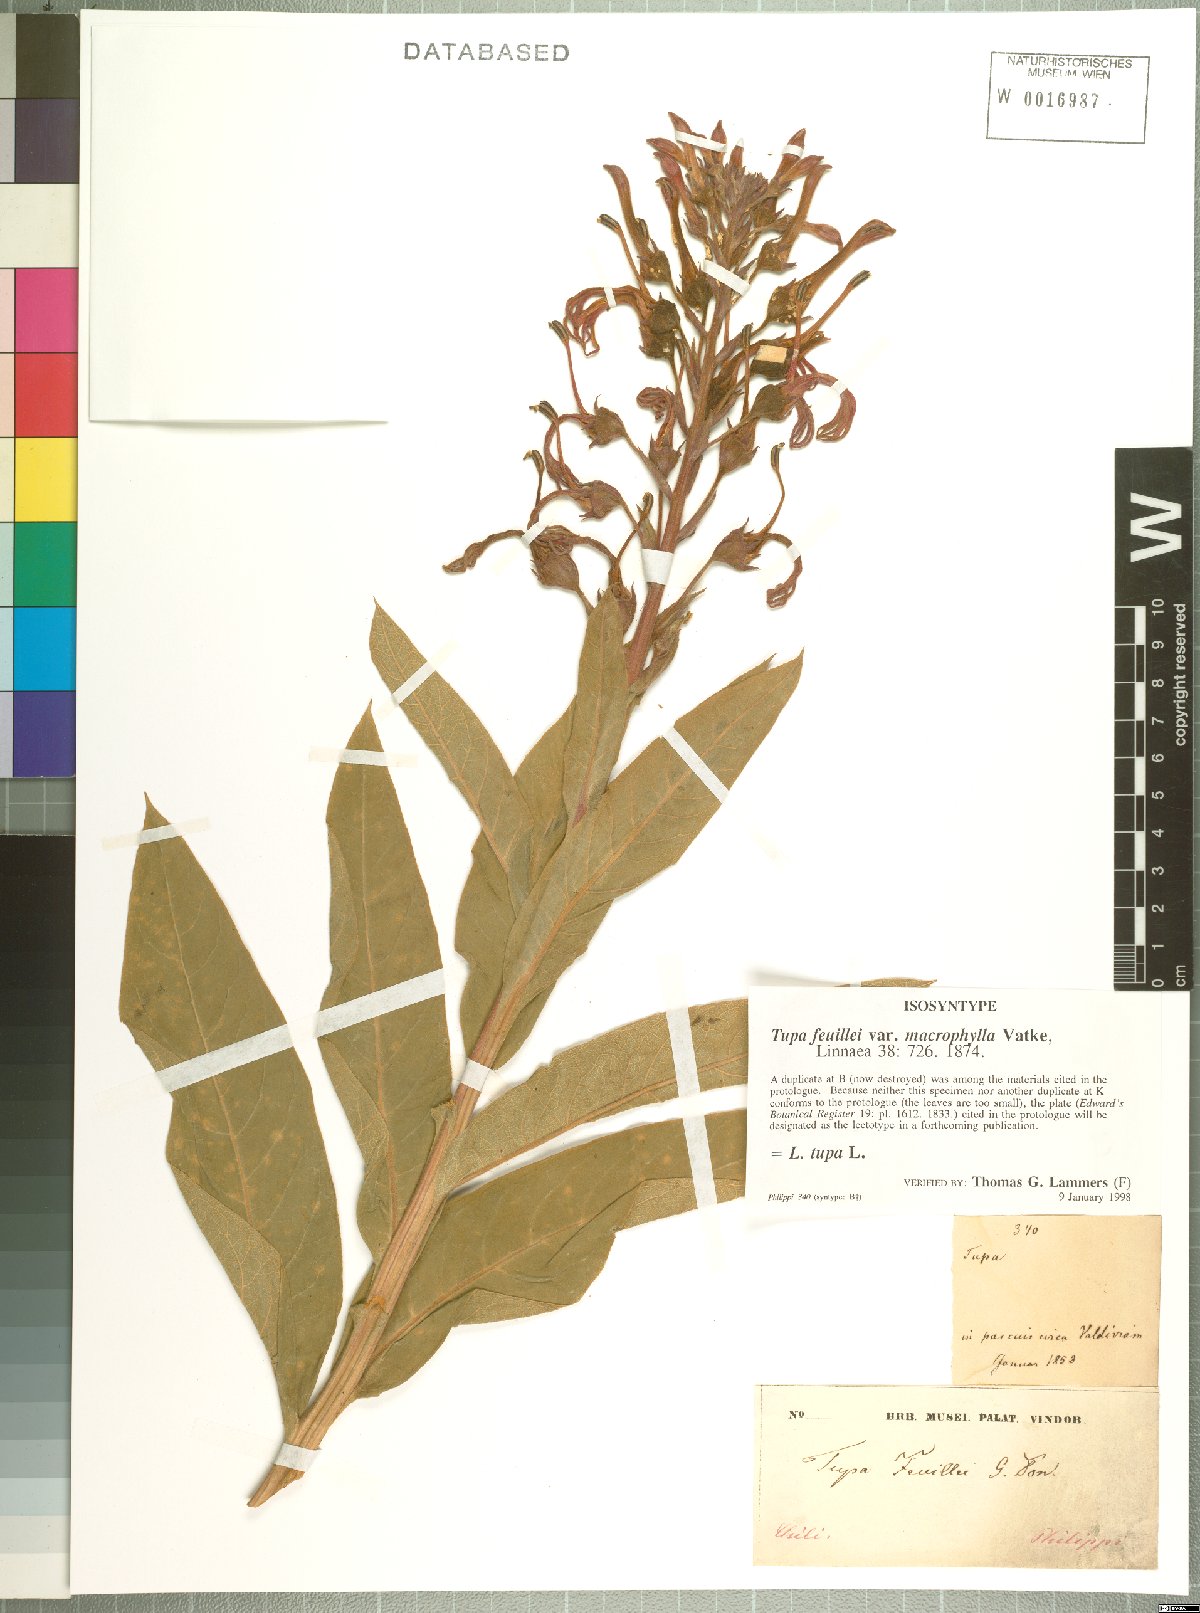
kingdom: Plantae
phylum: Tracheophyta
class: Magnoliopsida
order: Asterales
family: Campanulaceae
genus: Lobelia
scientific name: Lobelia tupa
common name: Devil's-tobacco
